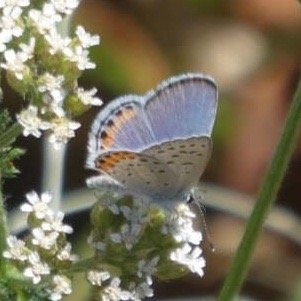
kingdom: Animalia
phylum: Arthropoda
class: Insecta
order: Lepidoptera
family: Lycaenidae
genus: Plebejus
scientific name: Plebejus
